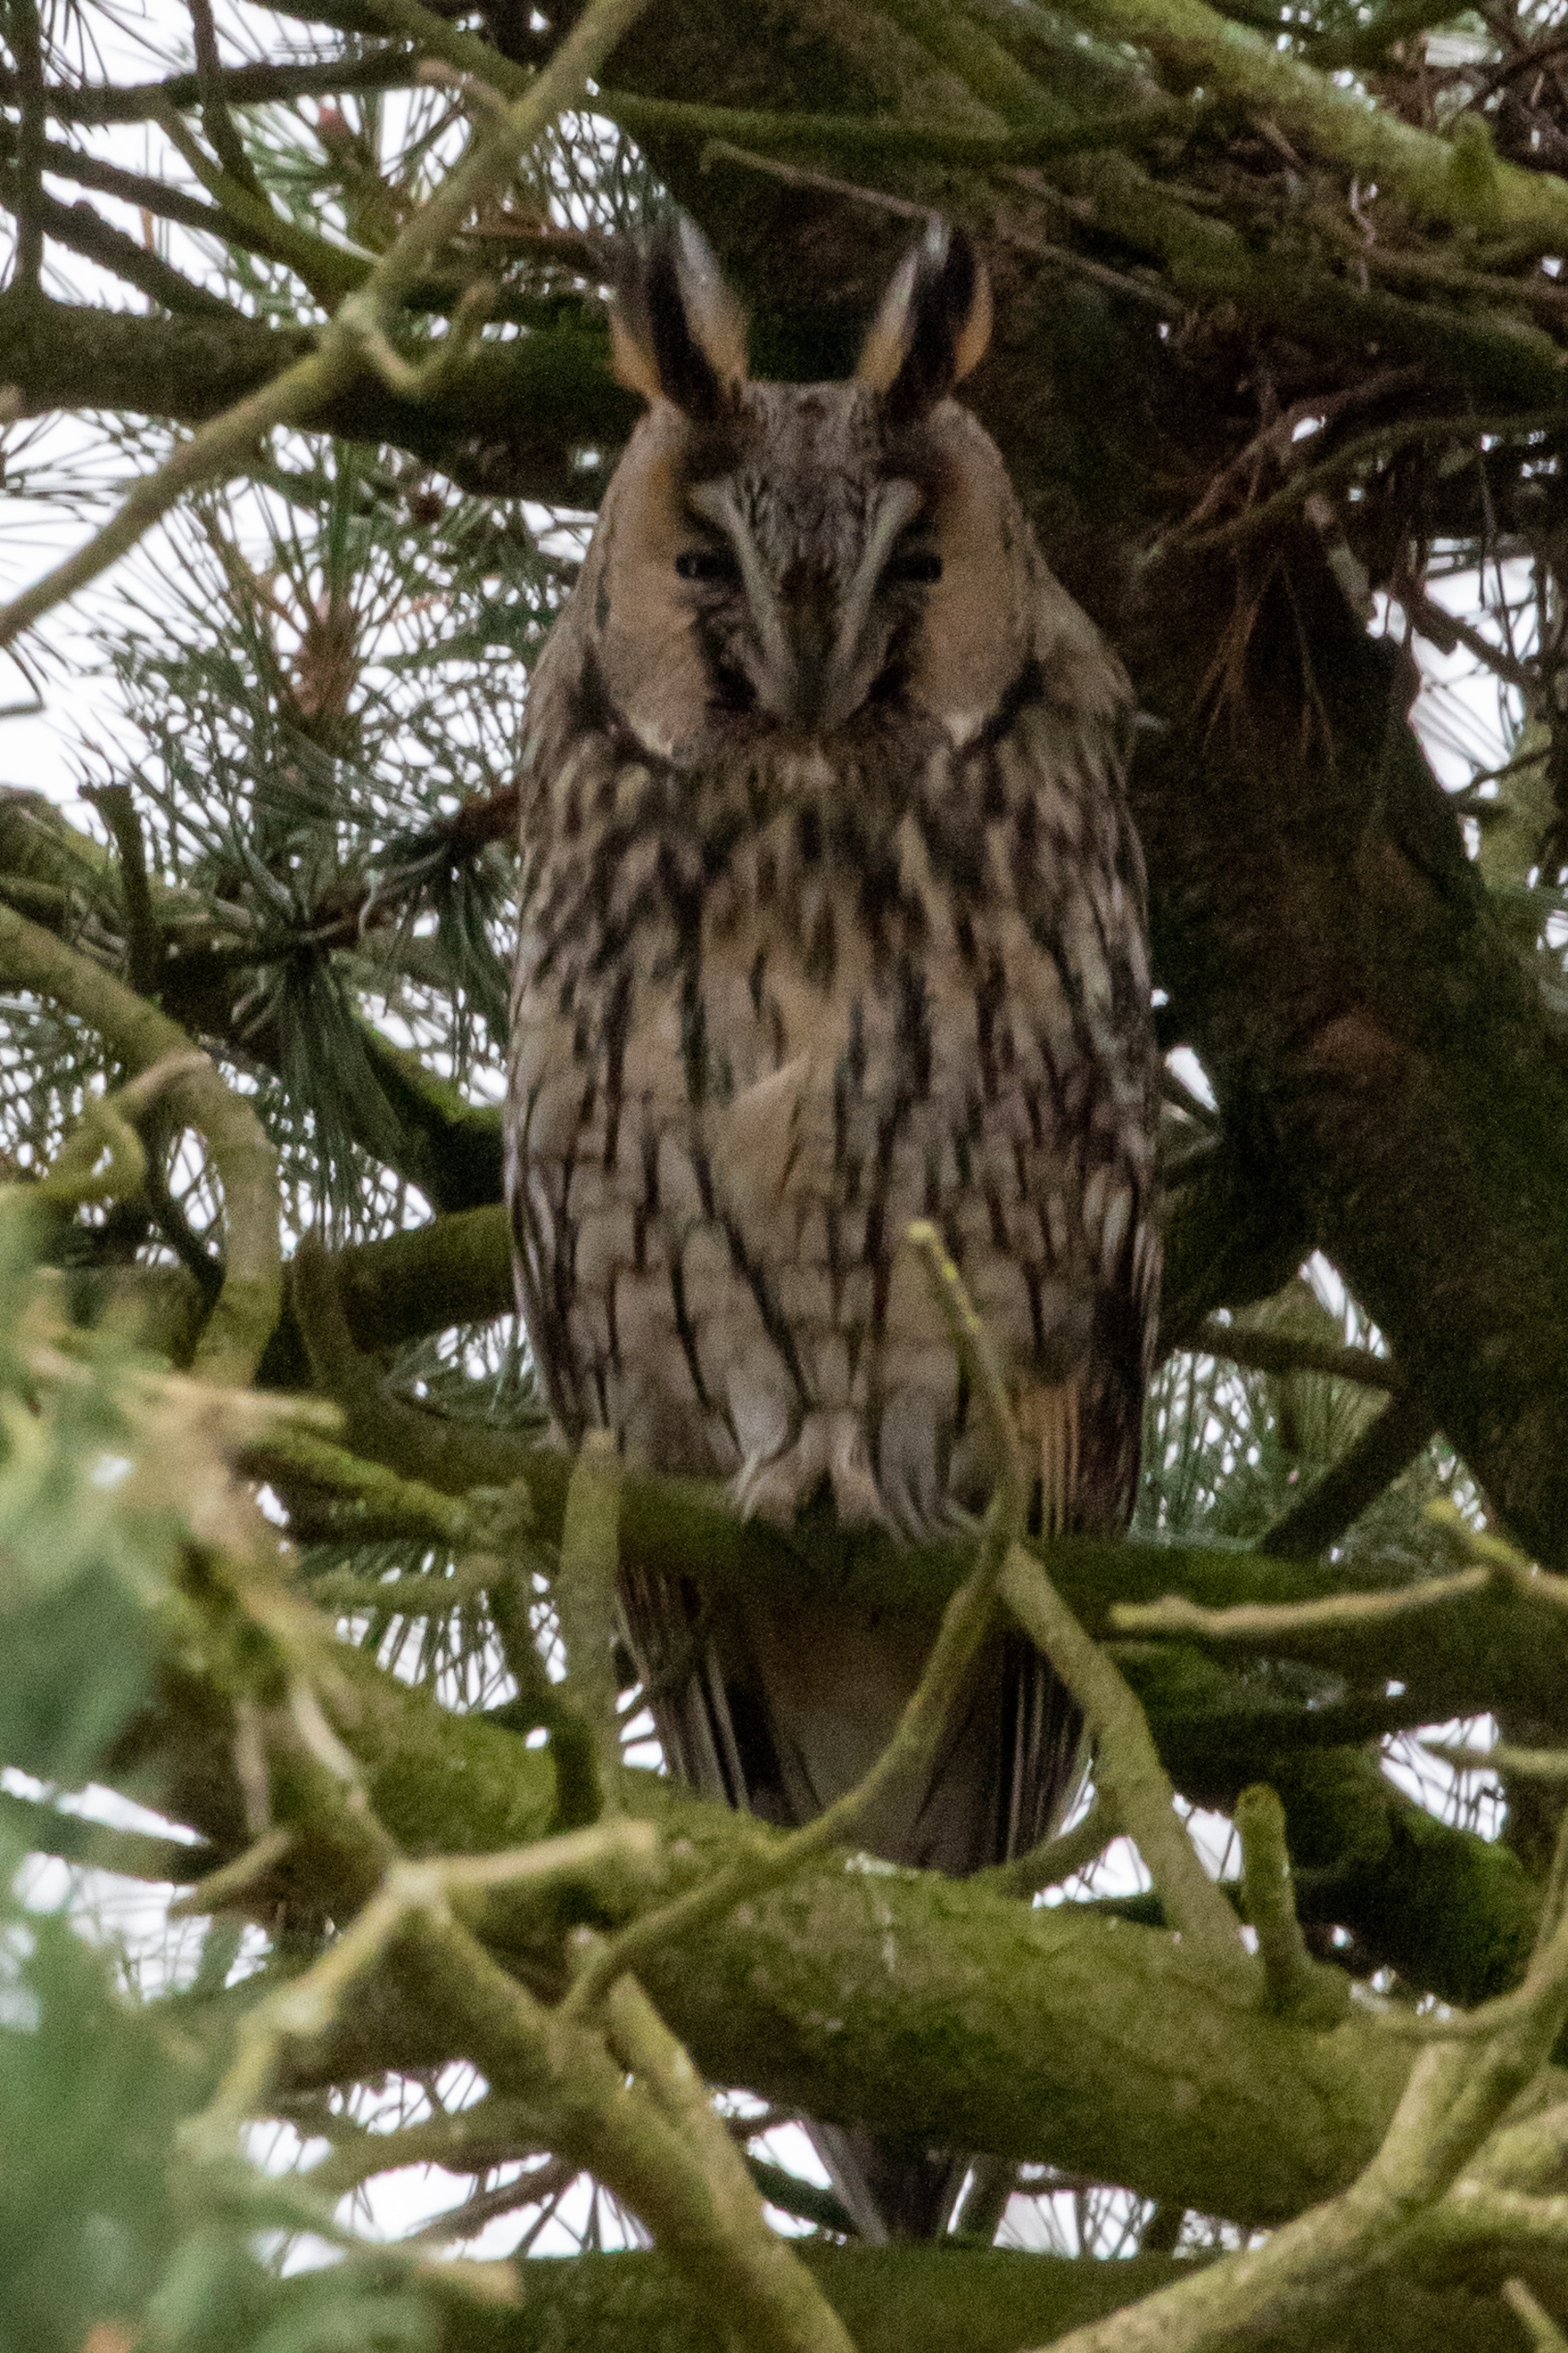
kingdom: Animalia
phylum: Chordata
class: Aves
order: Strigiformes
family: Strigidae
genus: Asio
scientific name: Asio otus
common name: Skovhornugle
